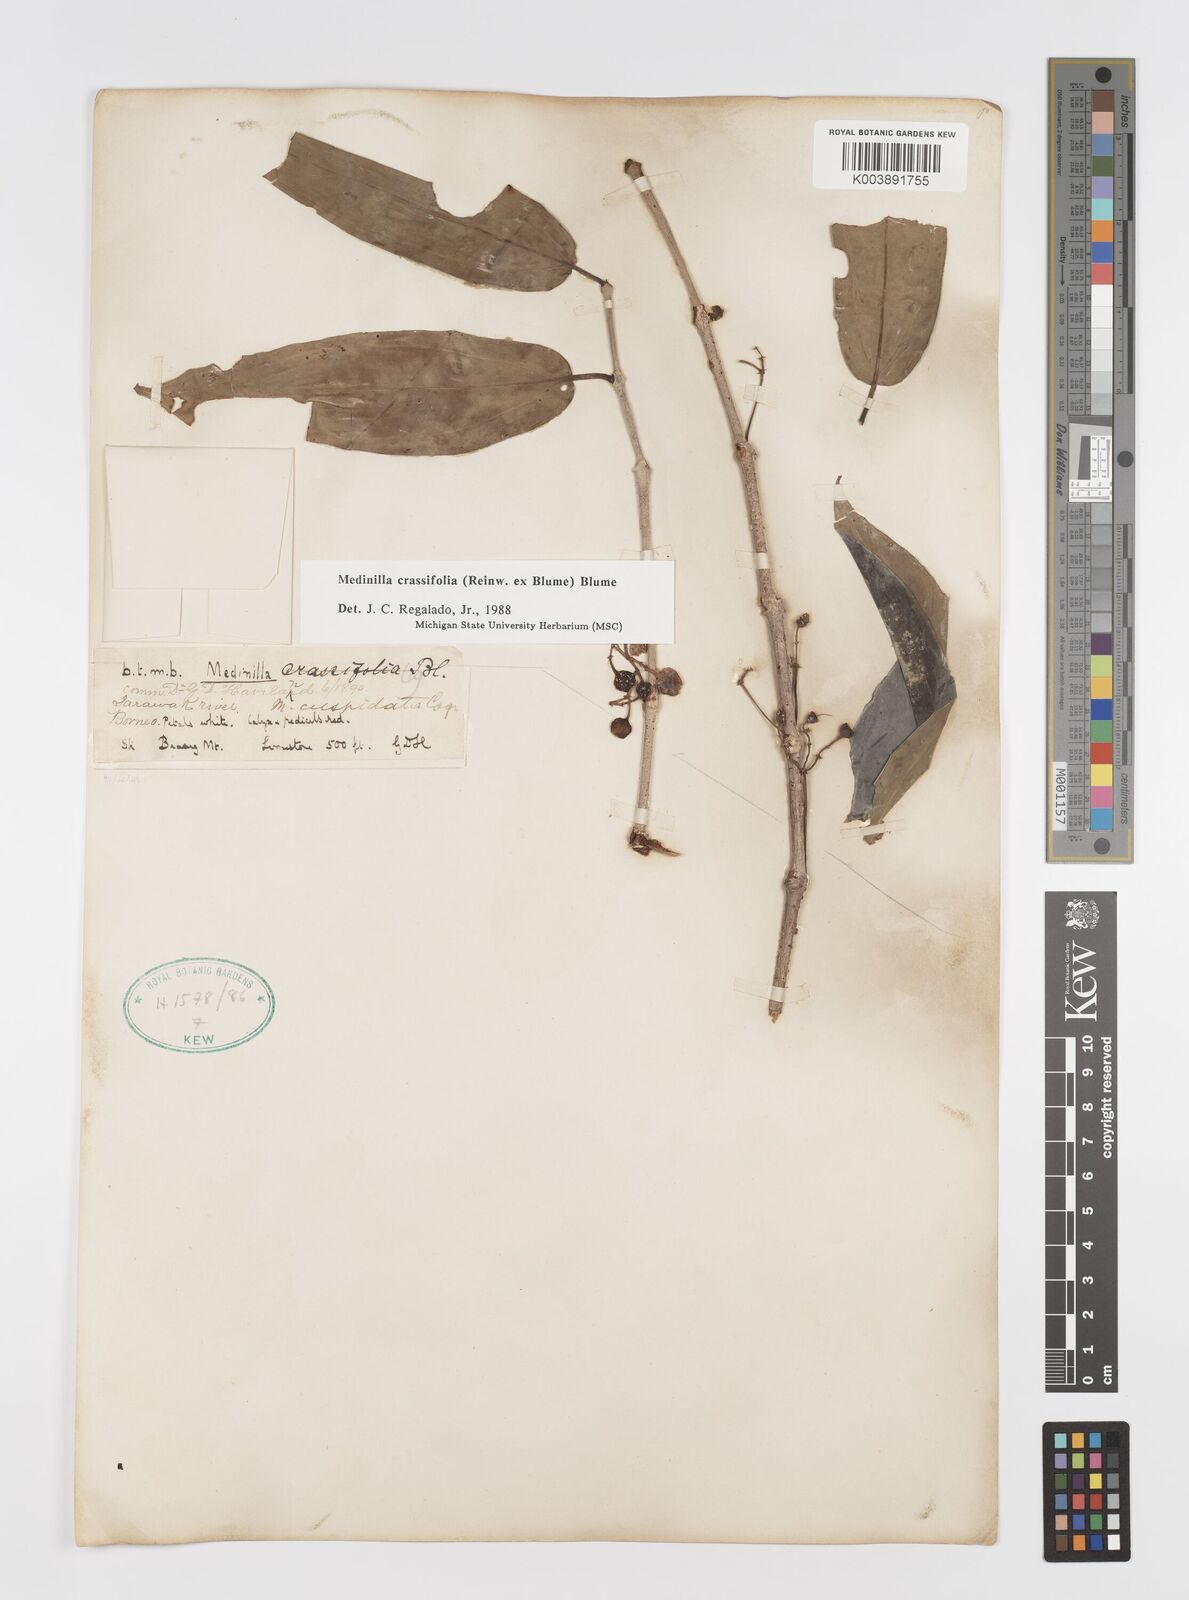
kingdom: Plantae
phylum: Tracheophyta
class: Magnoliopsida
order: Myrtales
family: Melastomataceae
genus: Medinilla
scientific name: Medinilla crassifolia
